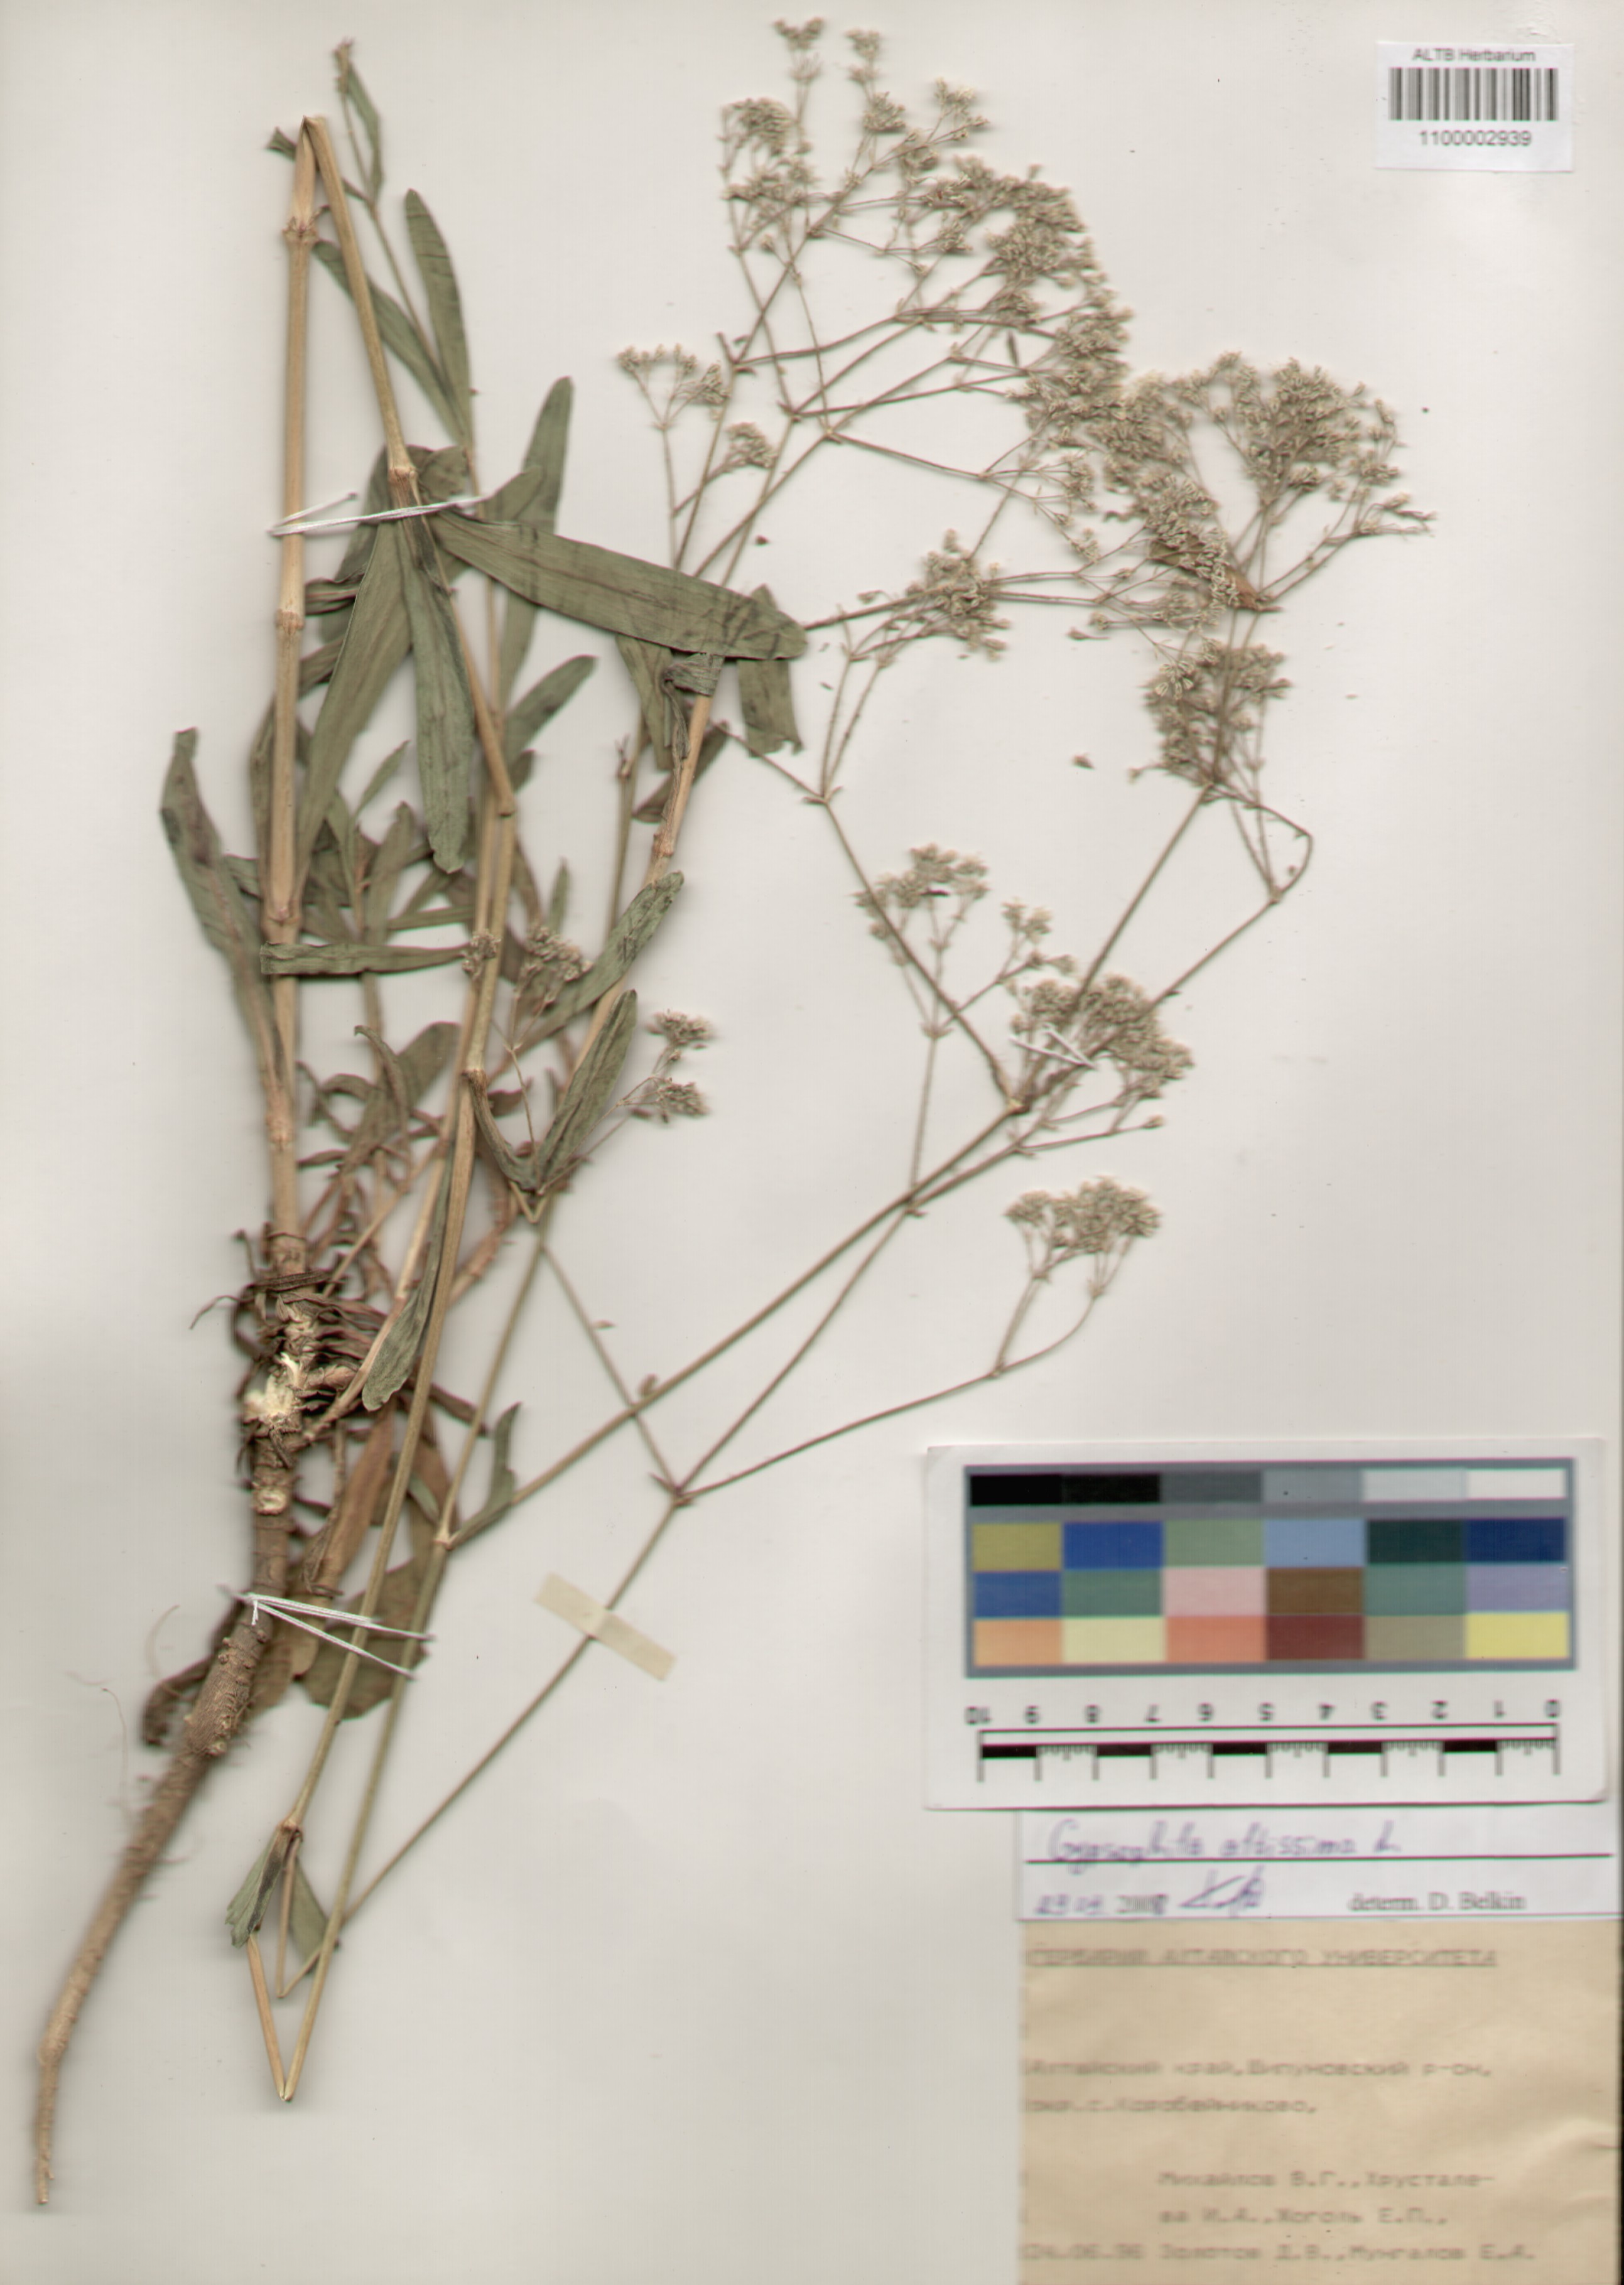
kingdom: Plantae
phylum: Tracheophyta
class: Magnoliopsida
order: Caryophyllales
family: Caryophyllaceae
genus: Gypsophila
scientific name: Gypsophila altissima
